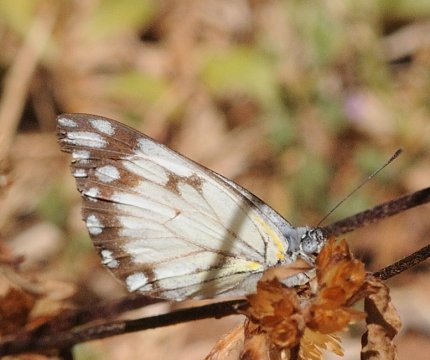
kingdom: Animalia
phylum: Arthropoda
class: Insecta
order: Lepidoptera
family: Pieridae
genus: Belenois
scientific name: Belenois creona
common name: African Caper
